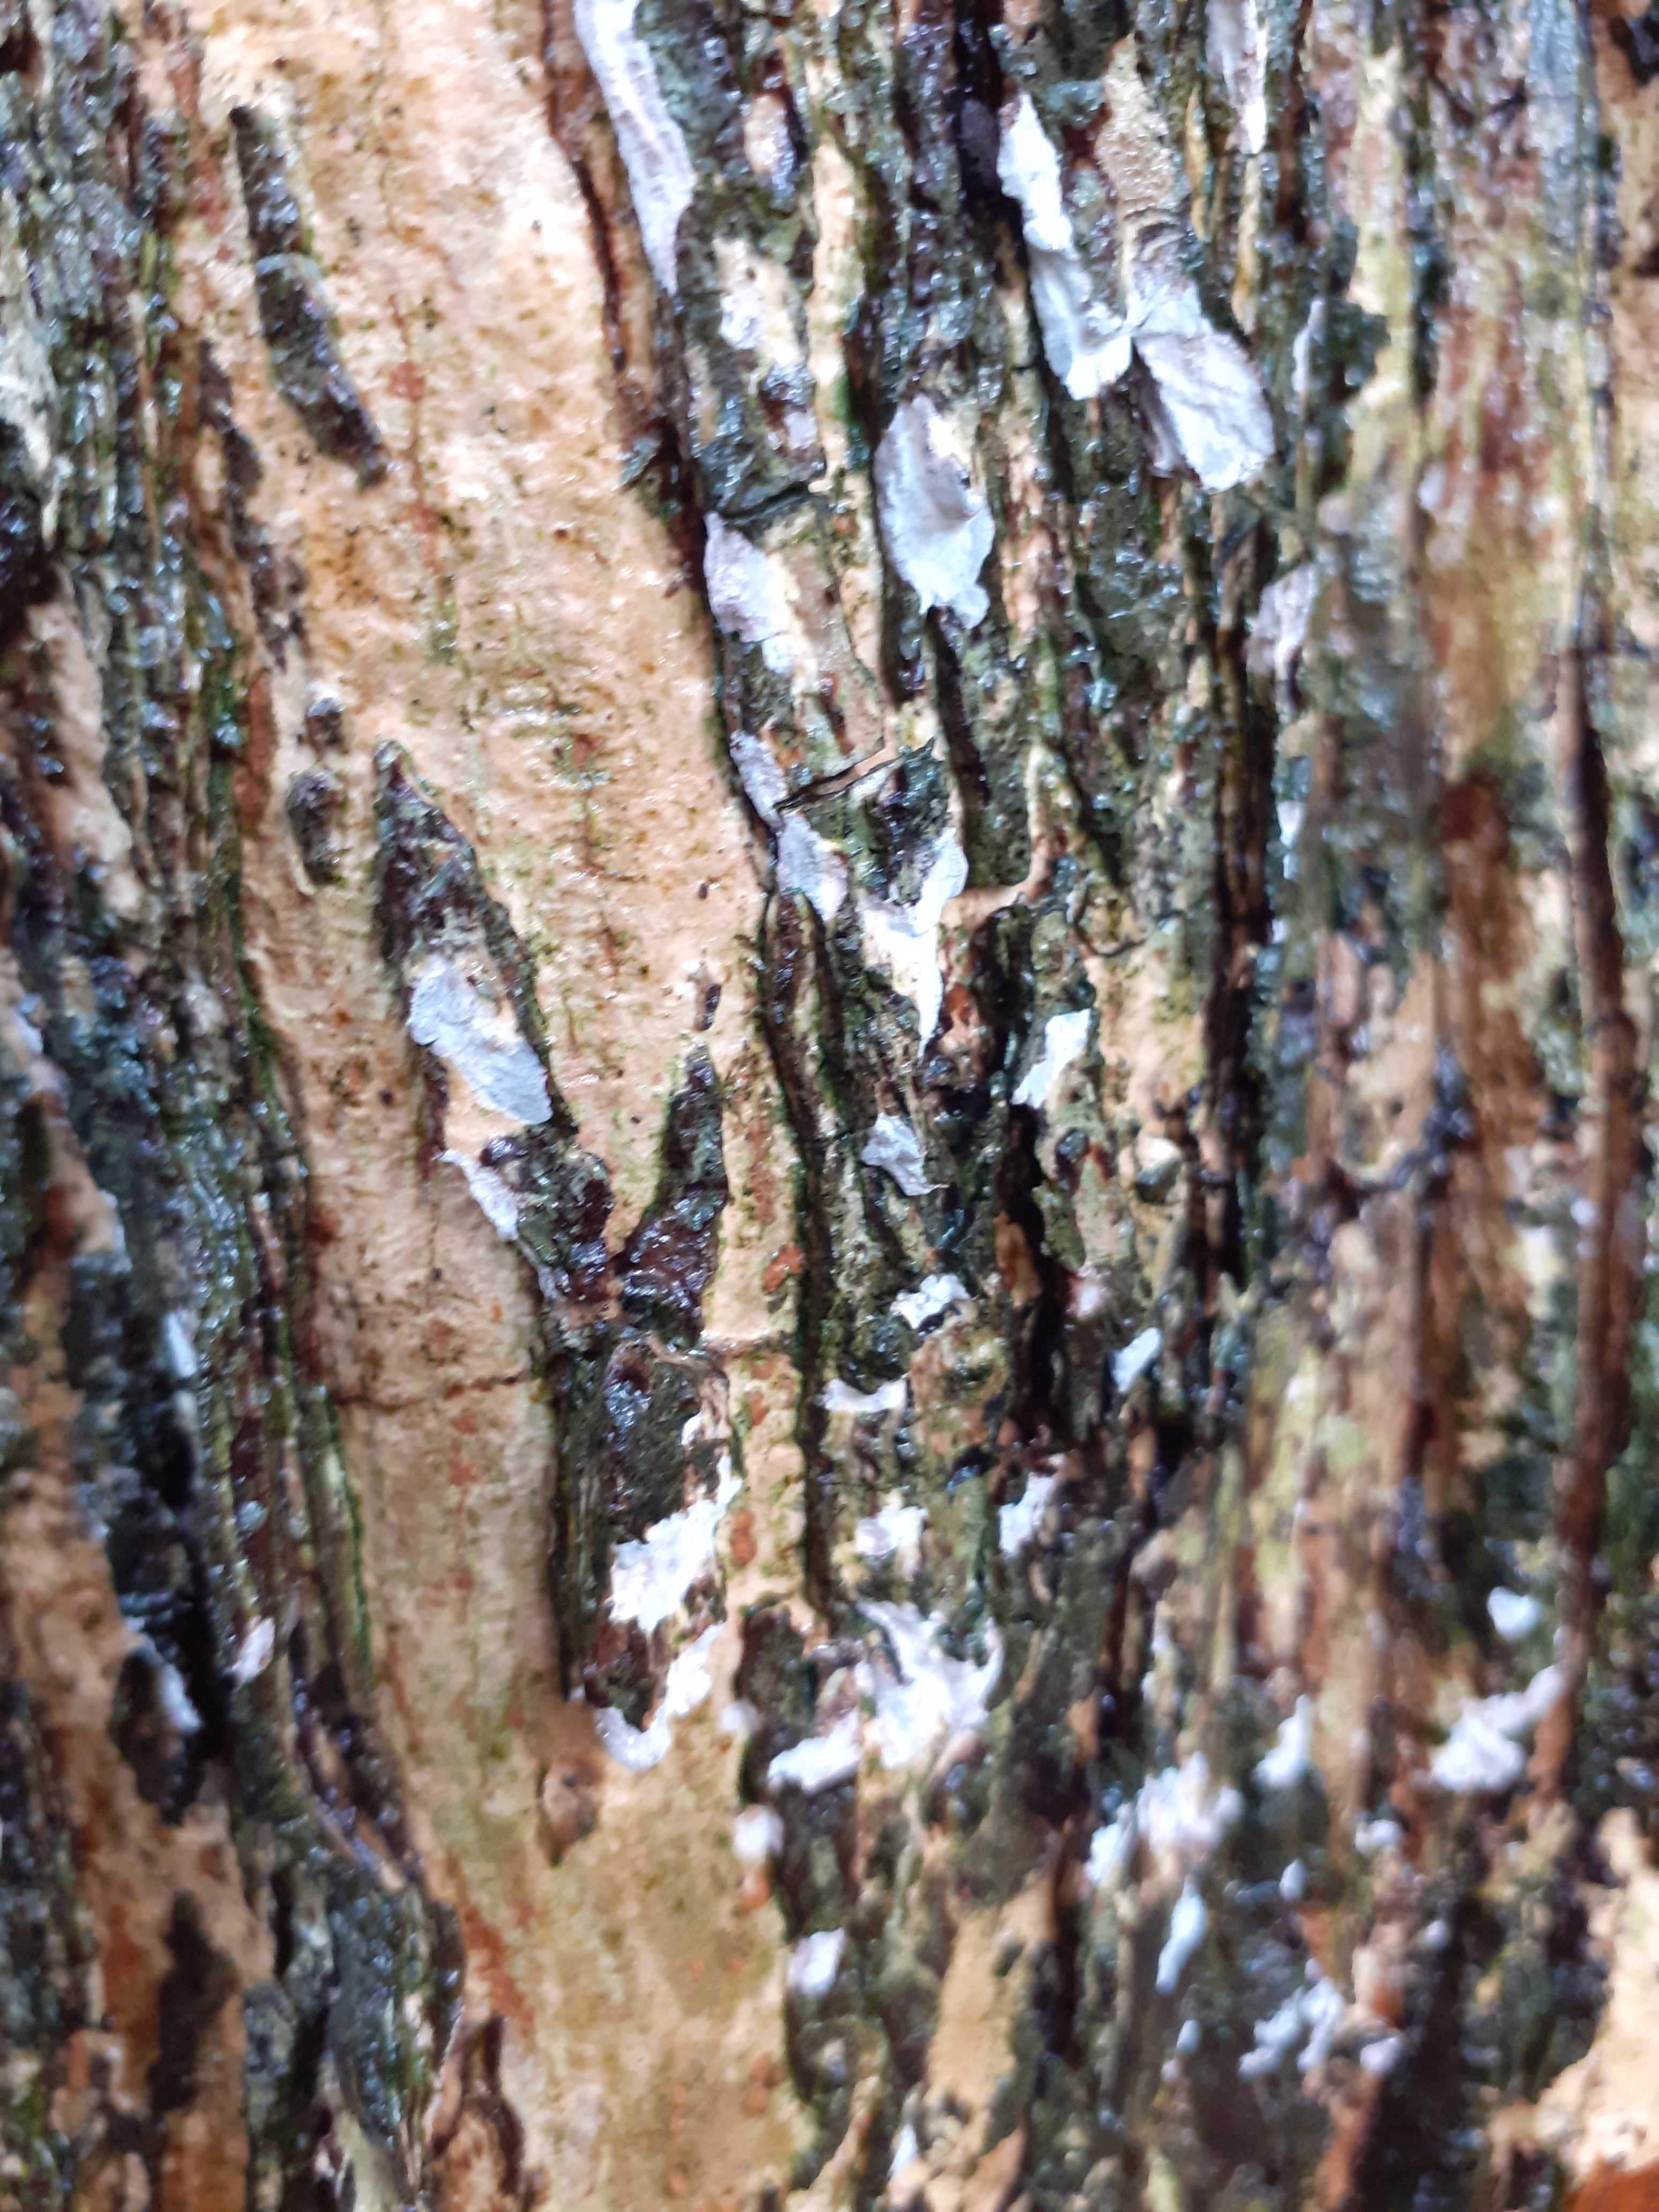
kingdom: Fungi
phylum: Basidiomycota
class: Agaricomycetes
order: Agaricales
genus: Dendrothele
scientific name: Dendrothele acerina
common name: navr-kalkplet
